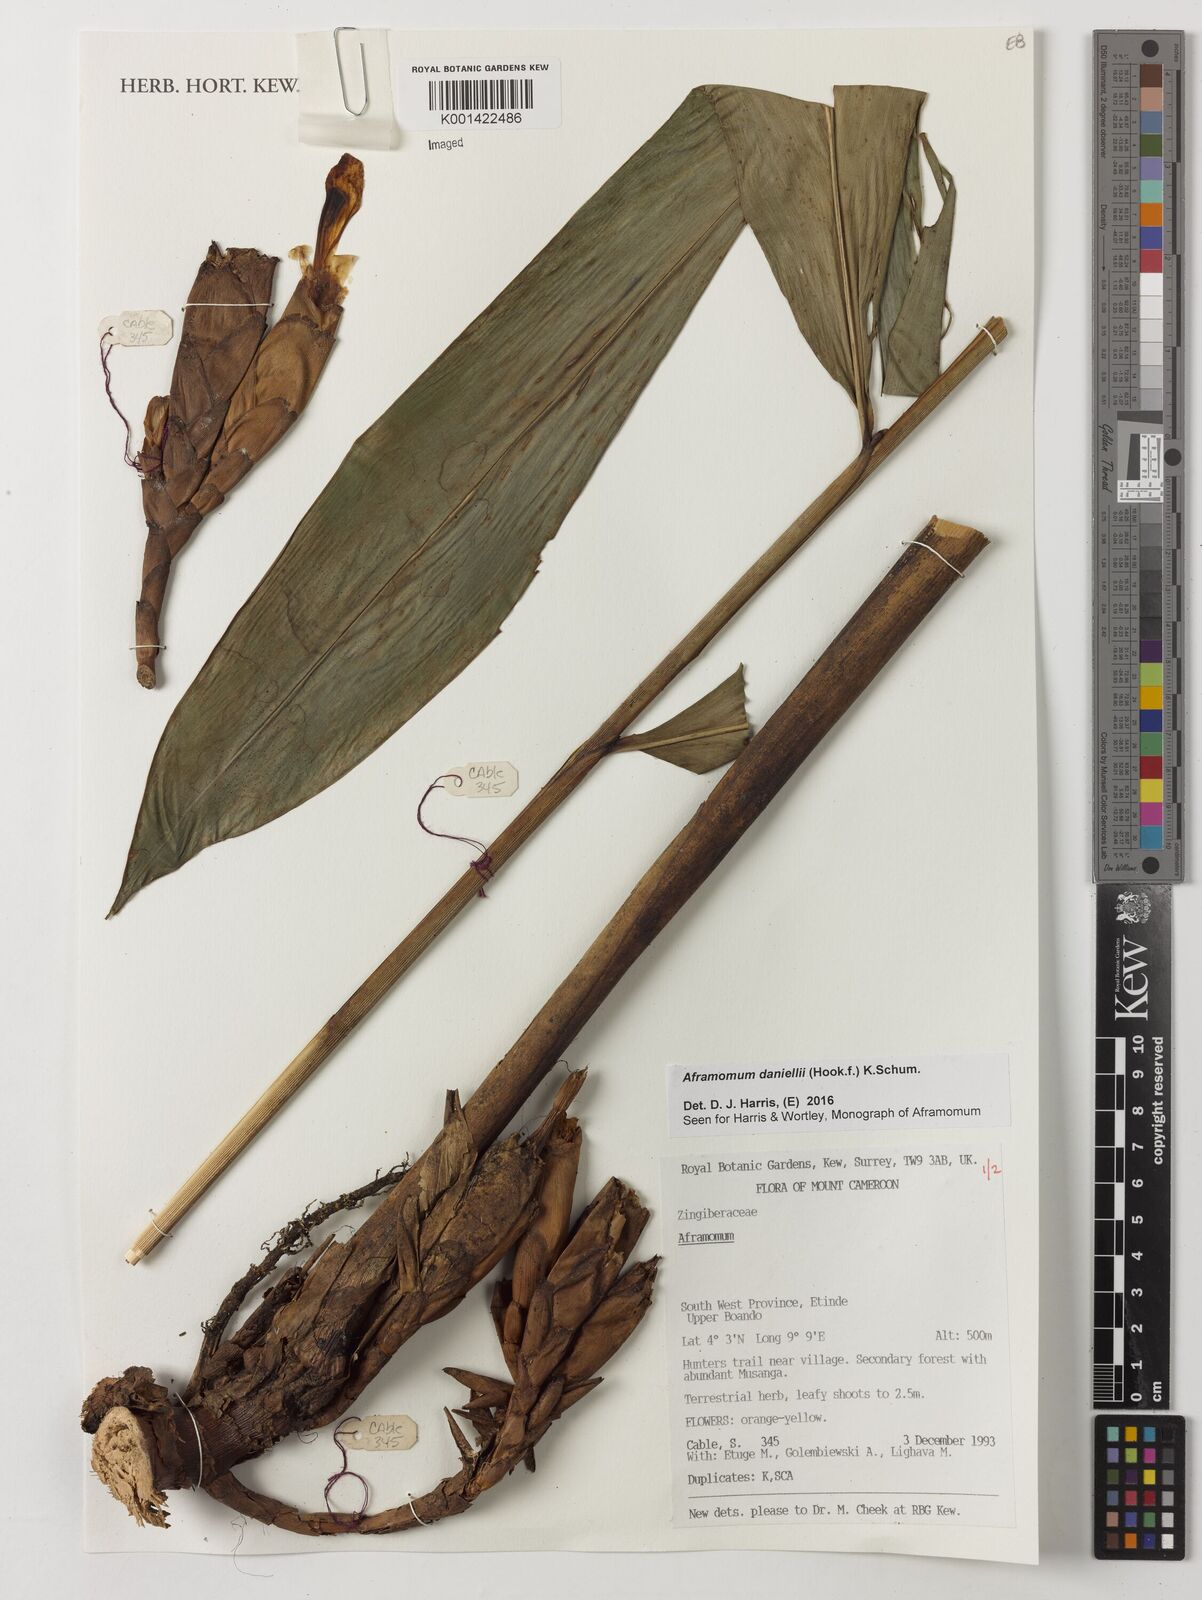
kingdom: Plantae
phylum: Tracheophyta
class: Liliopsida
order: Zingiberales
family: Zingiberaceae
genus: Aframomum
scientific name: Aframomum daniellii
